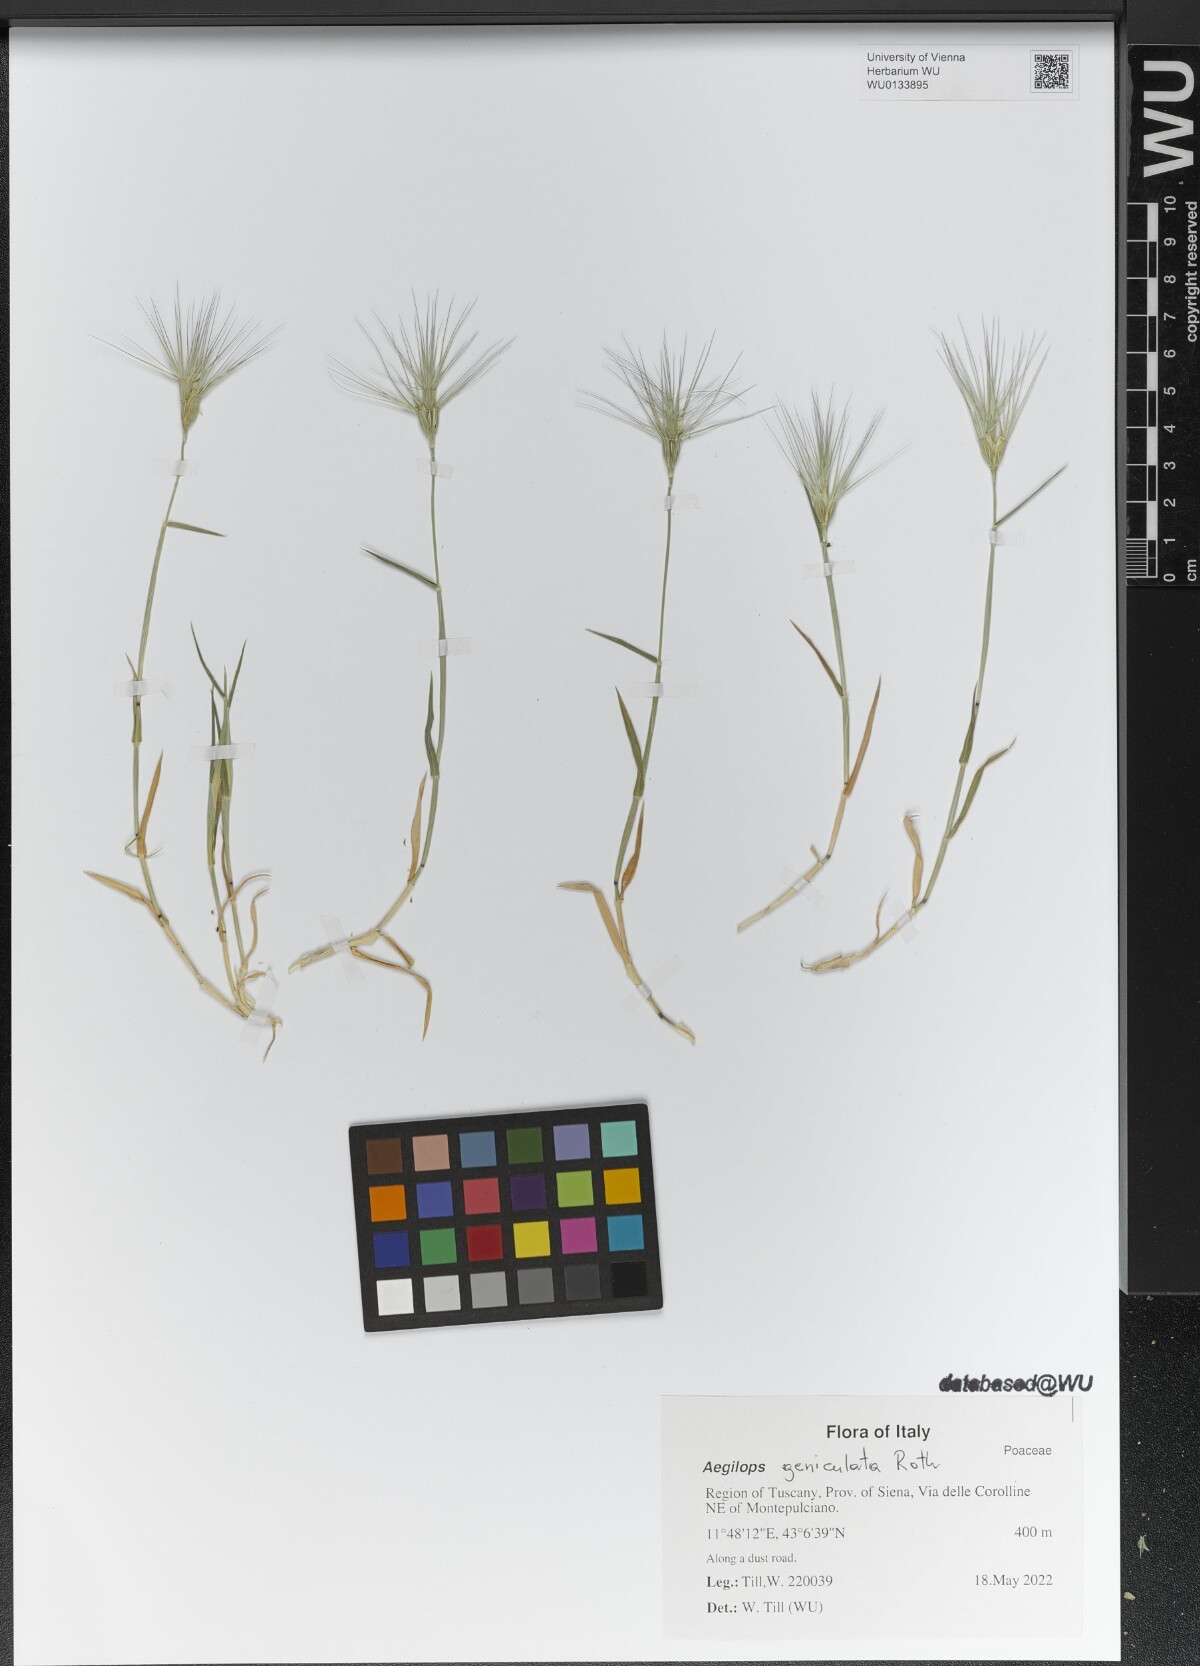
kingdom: Plantae
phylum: Tracheophyta
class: Liliopsida
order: Poales
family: Poaceae
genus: Aegilops
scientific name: Aegilops geniculata
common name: Ovate goat grass
